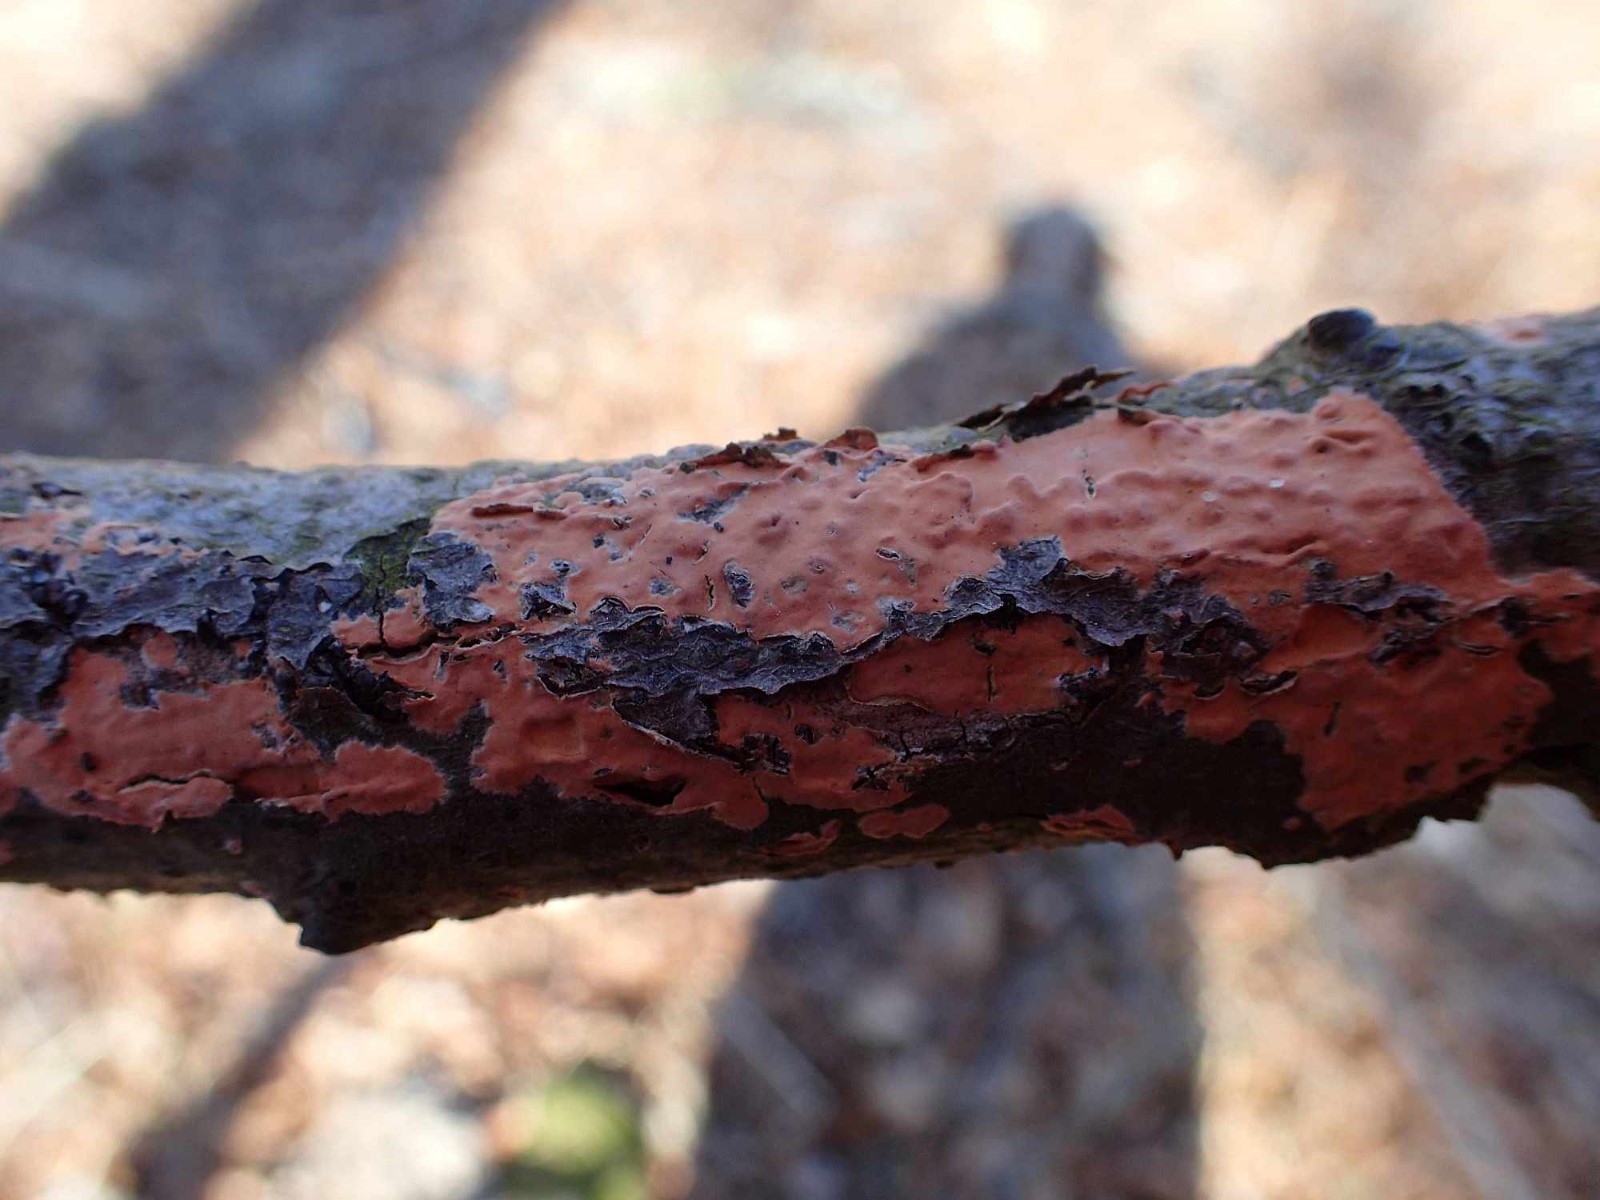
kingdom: Fungi
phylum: Basidiomycota
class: Agaricomycetes
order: Russulales
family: Peniophoraceae
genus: Peniophora
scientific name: Peniophora incarnata
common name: laksefarvet voksskind
